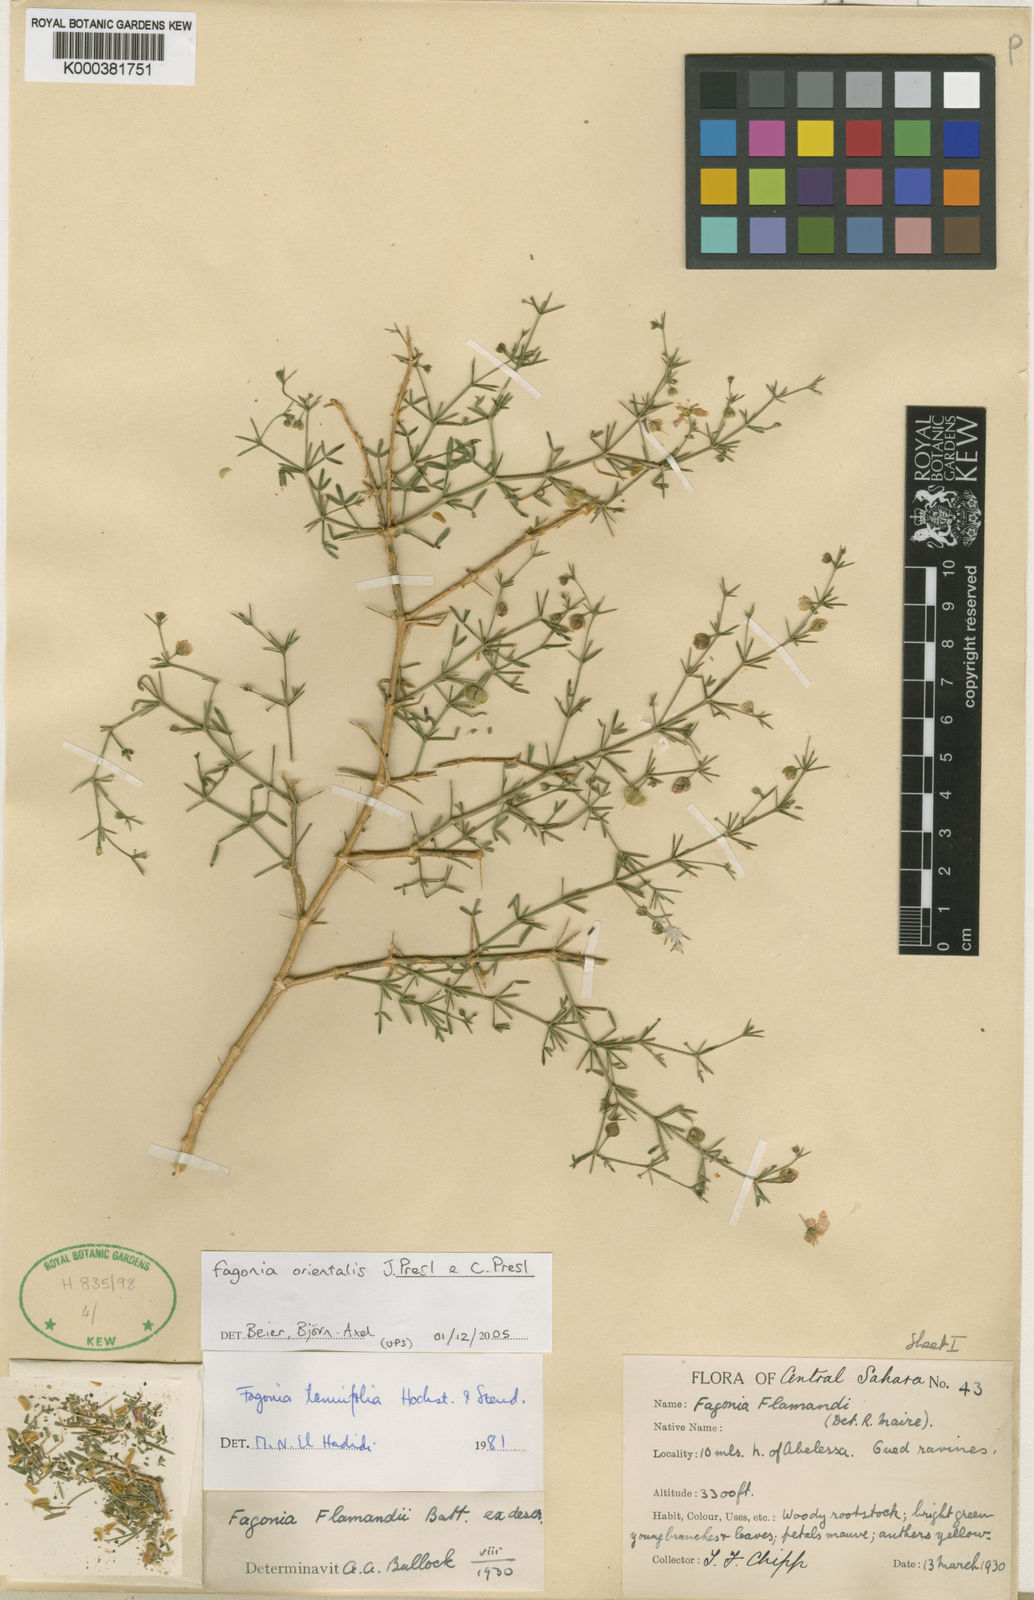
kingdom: Plantae
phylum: Tracheophyta
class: Magnoliopsida
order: Zygophyllales
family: Zygophyllaceae
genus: Fagonia
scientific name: Fagonia orientalis
